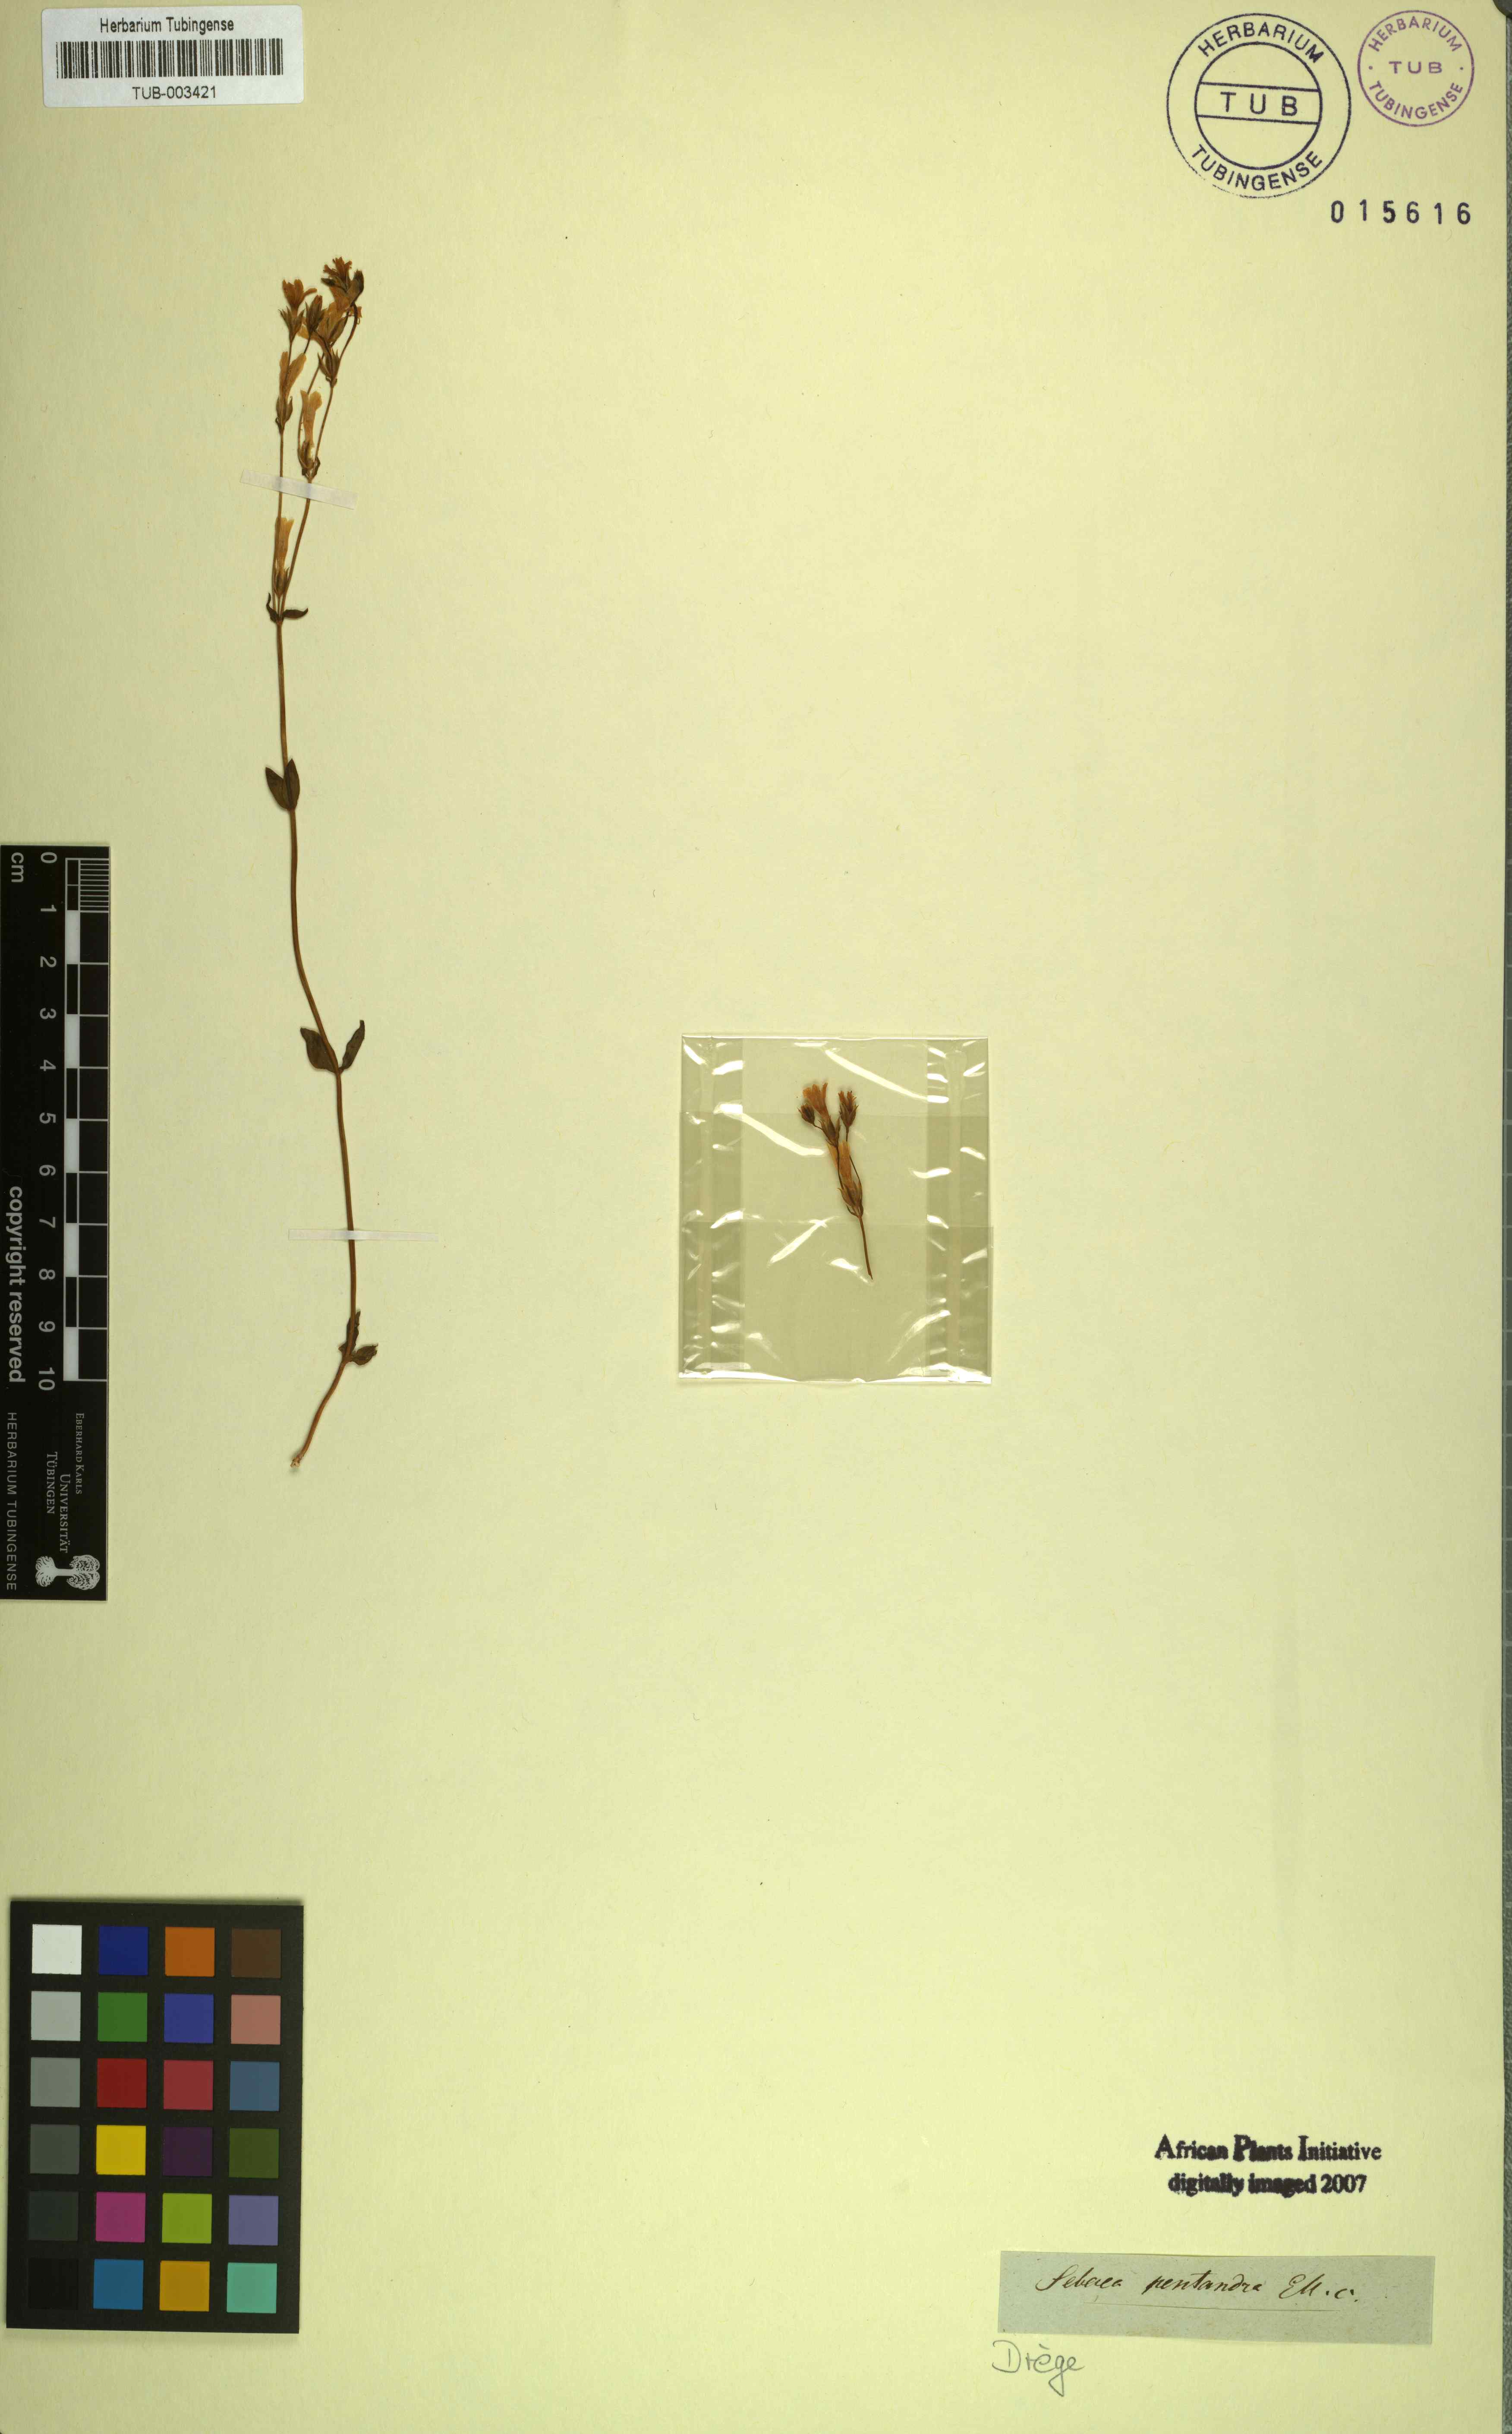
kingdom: Plantae
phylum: Tracheophyta
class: Magnoliopsida
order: Gentianales
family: Gentianaceae
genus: Sebaea
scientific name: Sebaea pentandra
